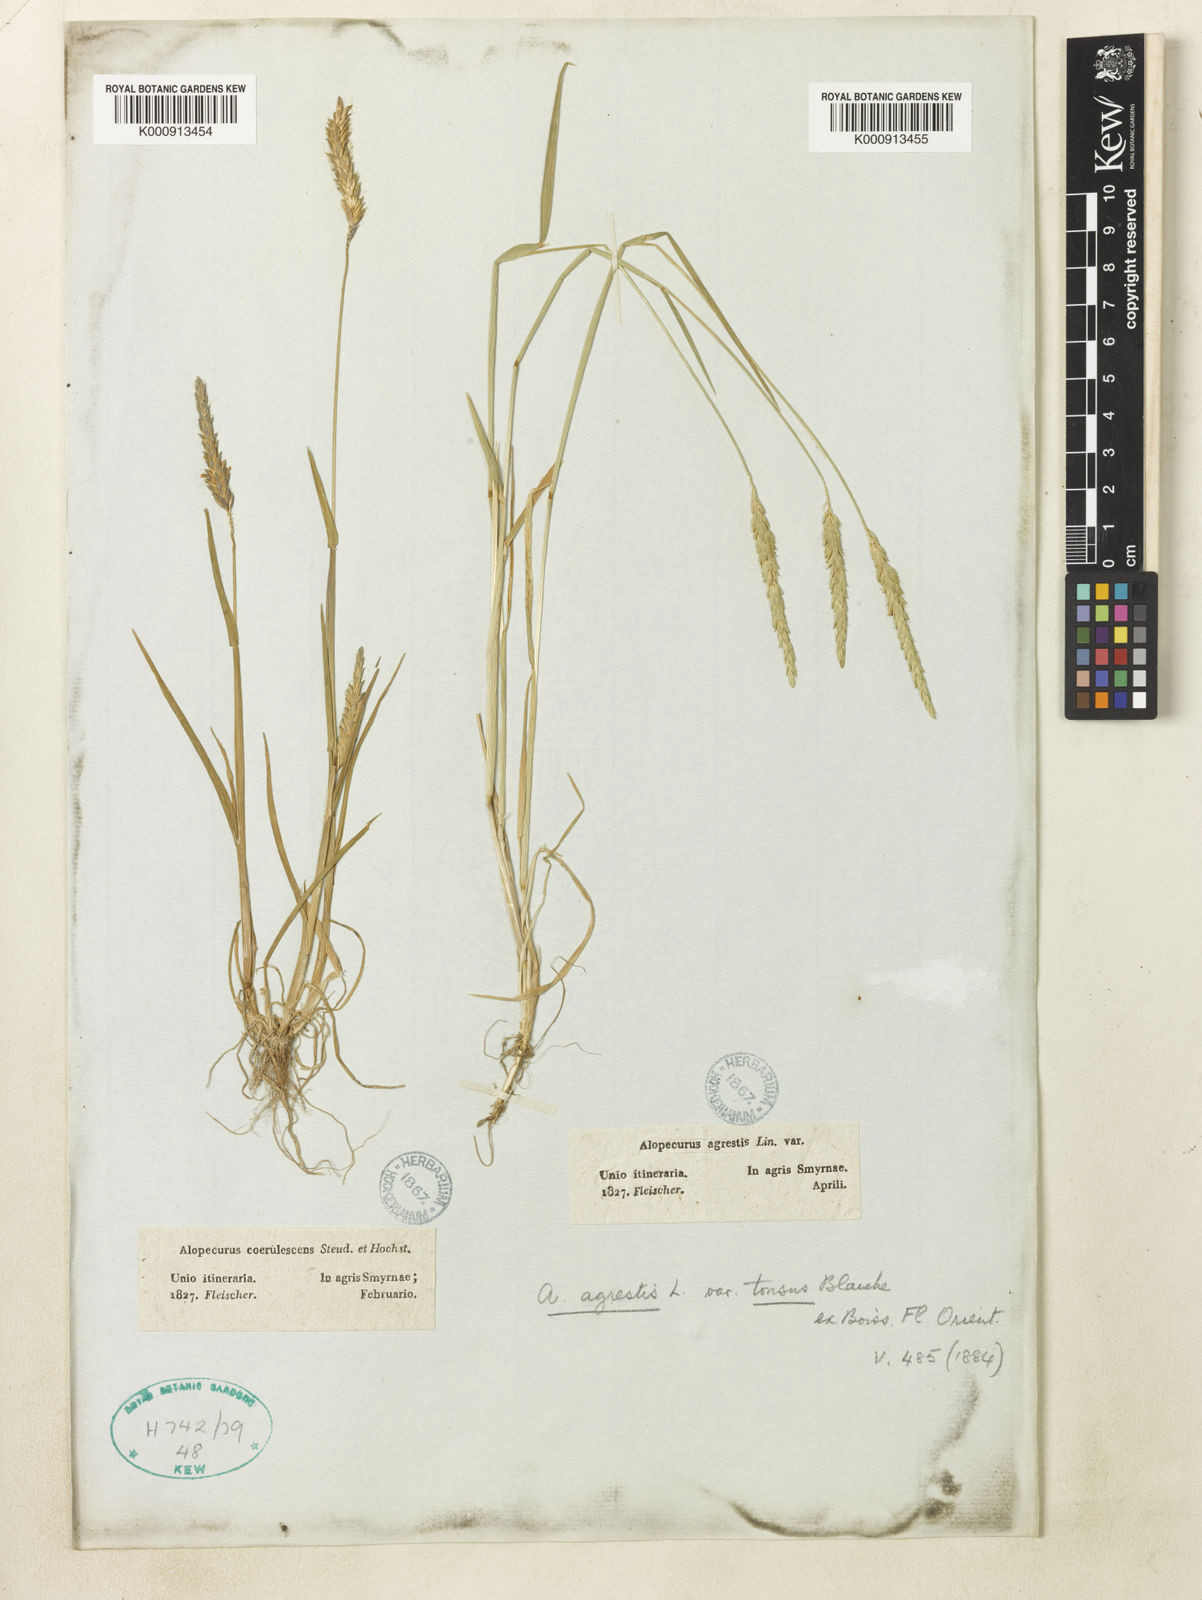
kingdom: Plantae
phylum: Tracheophyta
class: Liliopsida
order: Poales
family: Poaceae
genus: Alopecurus
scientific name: Alopecurus myosuroides
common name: Black-grass
